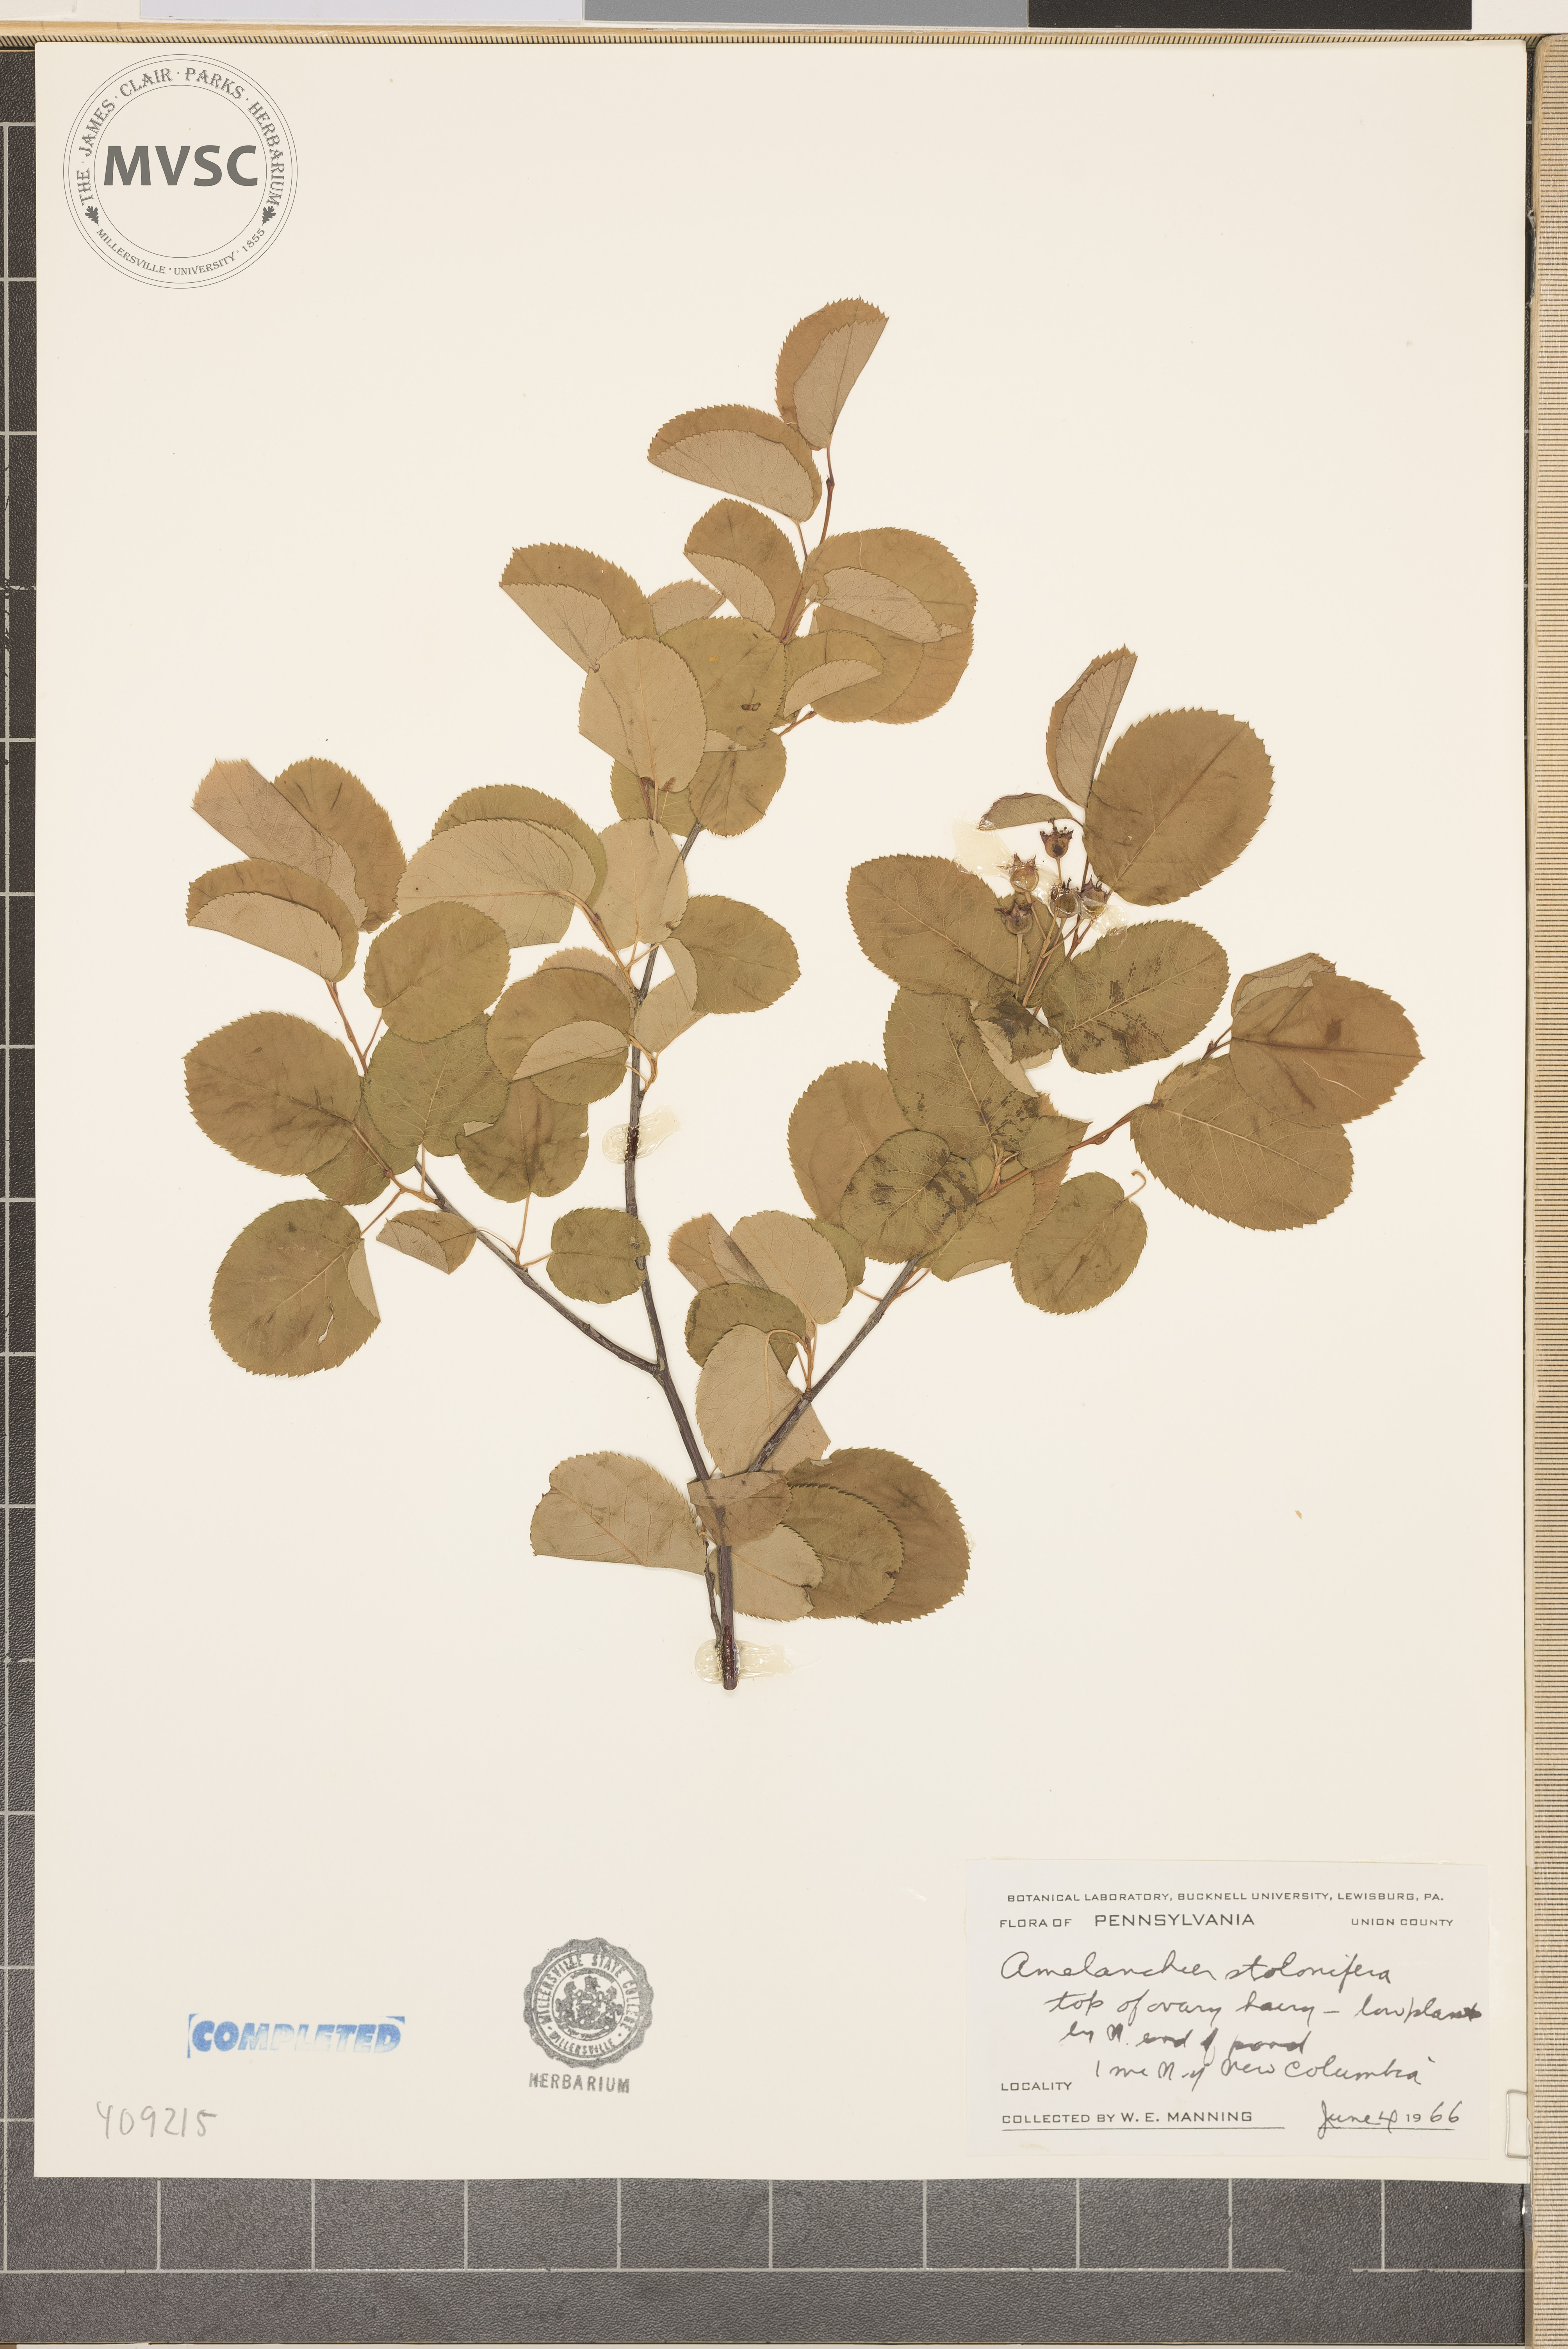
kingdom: Plantae
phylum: Tracheophyta
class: Magnoliopsida
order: Rosales
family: Rosaceae
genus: Amelanchier
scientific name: Amelanchier stolonifera
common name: Running serviceberry
